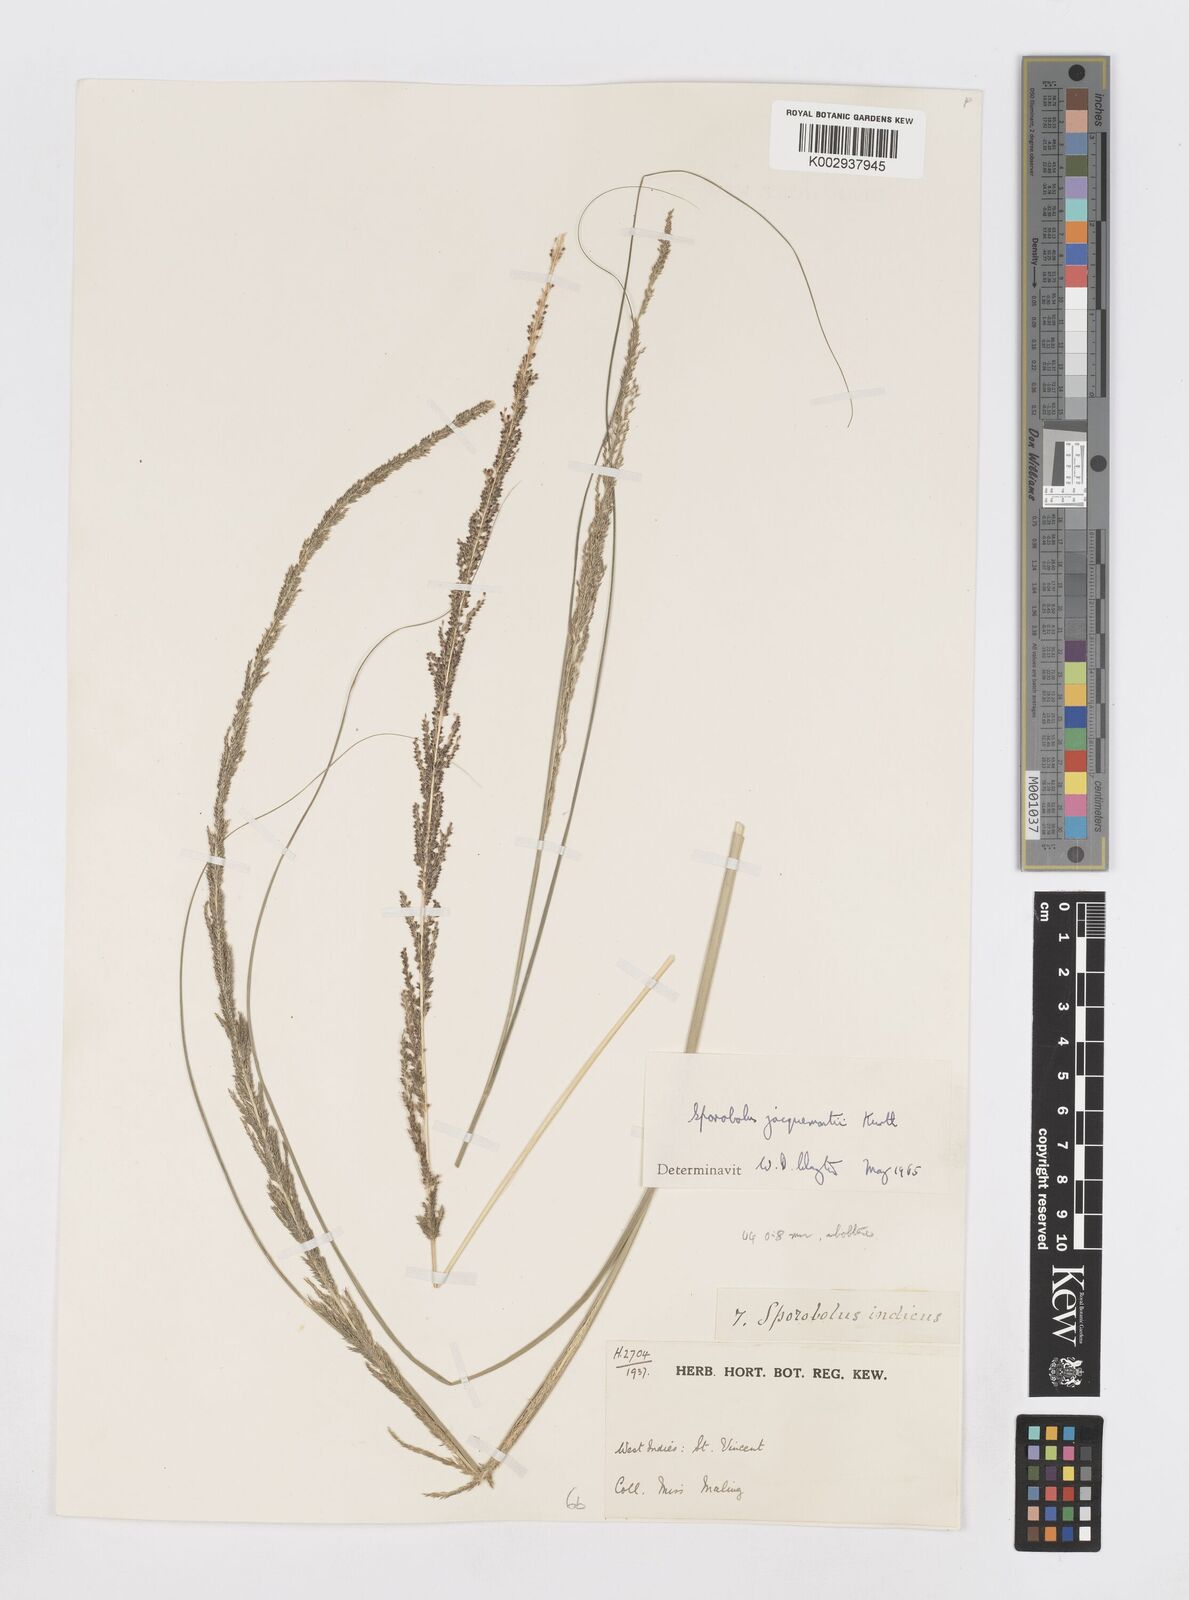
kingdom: Plantae
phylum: Tracheophyta
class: Liliopsida
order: Poales
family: Poaceae
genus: Sporobolus
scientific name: Sporobolus pyramidalis
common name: West indian dropseed
